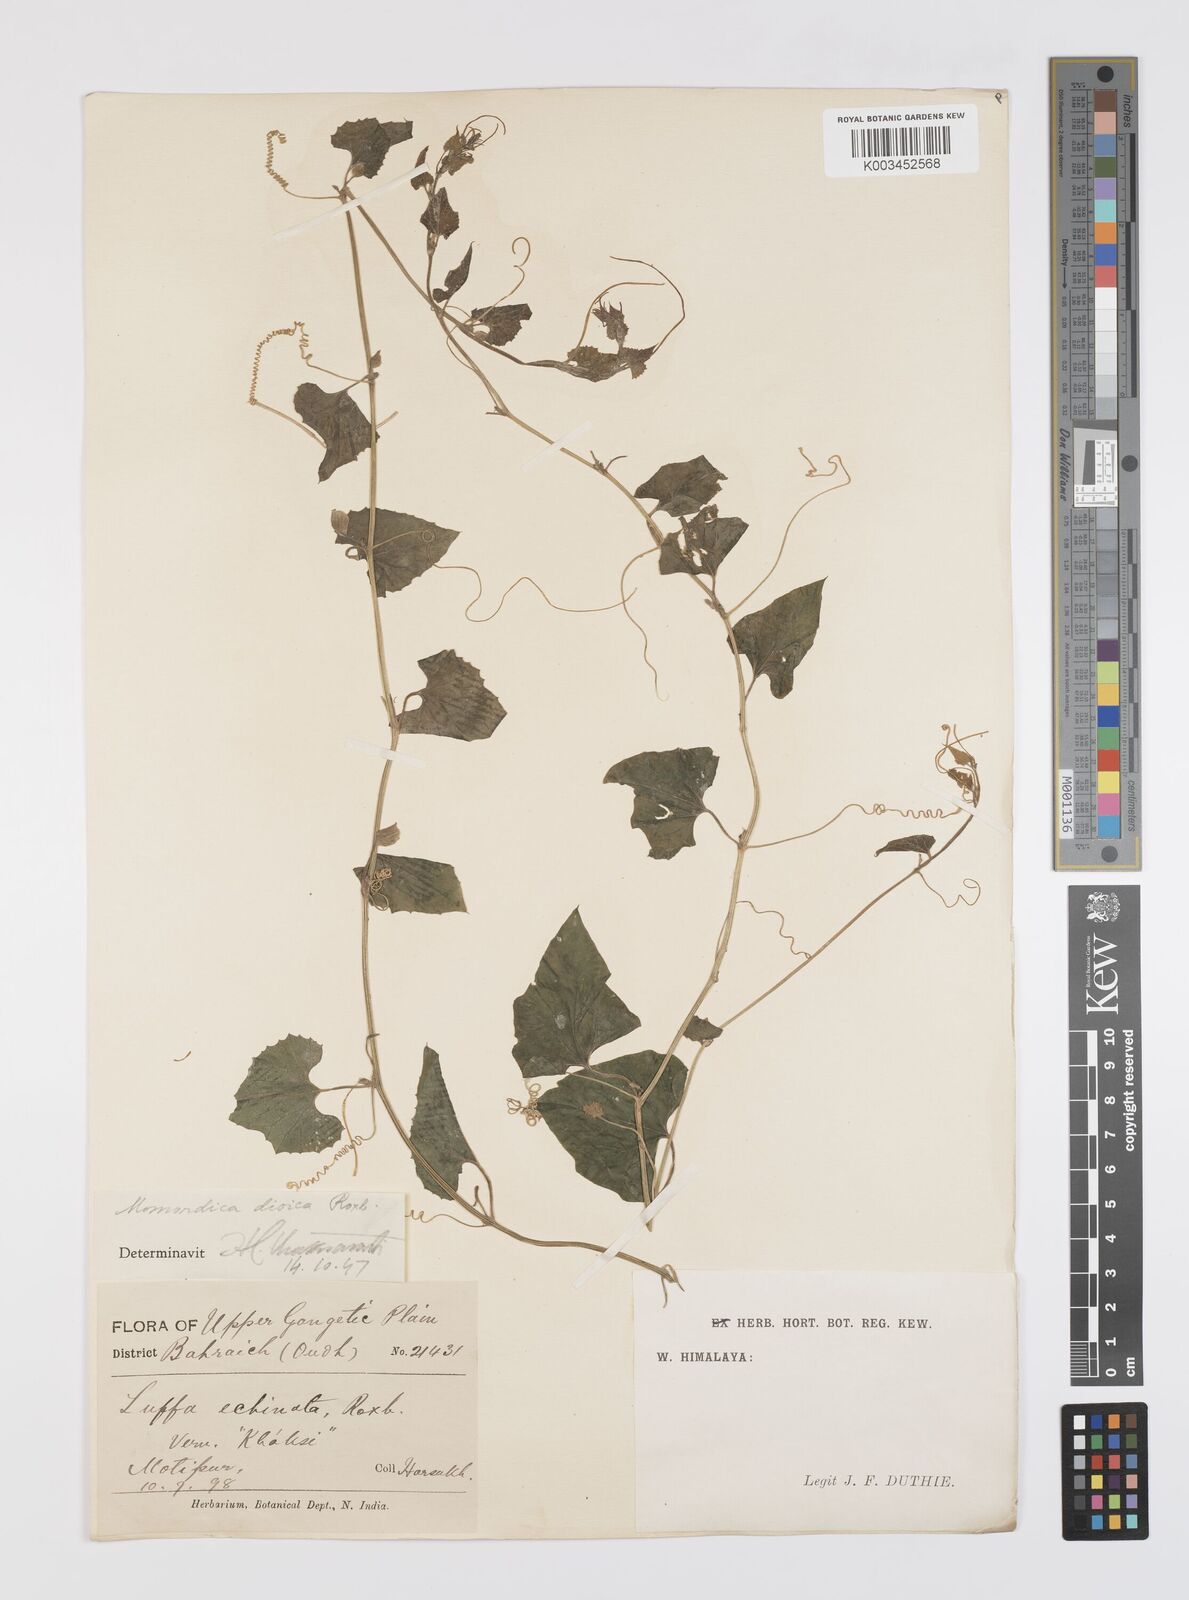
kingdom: Plantae
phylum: Tracheophyta
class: Magnoliopsida
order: Cucurbitales
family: Cucurbitaceae
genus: Momordica
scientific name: Momordica dioica
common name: Spine gourd
